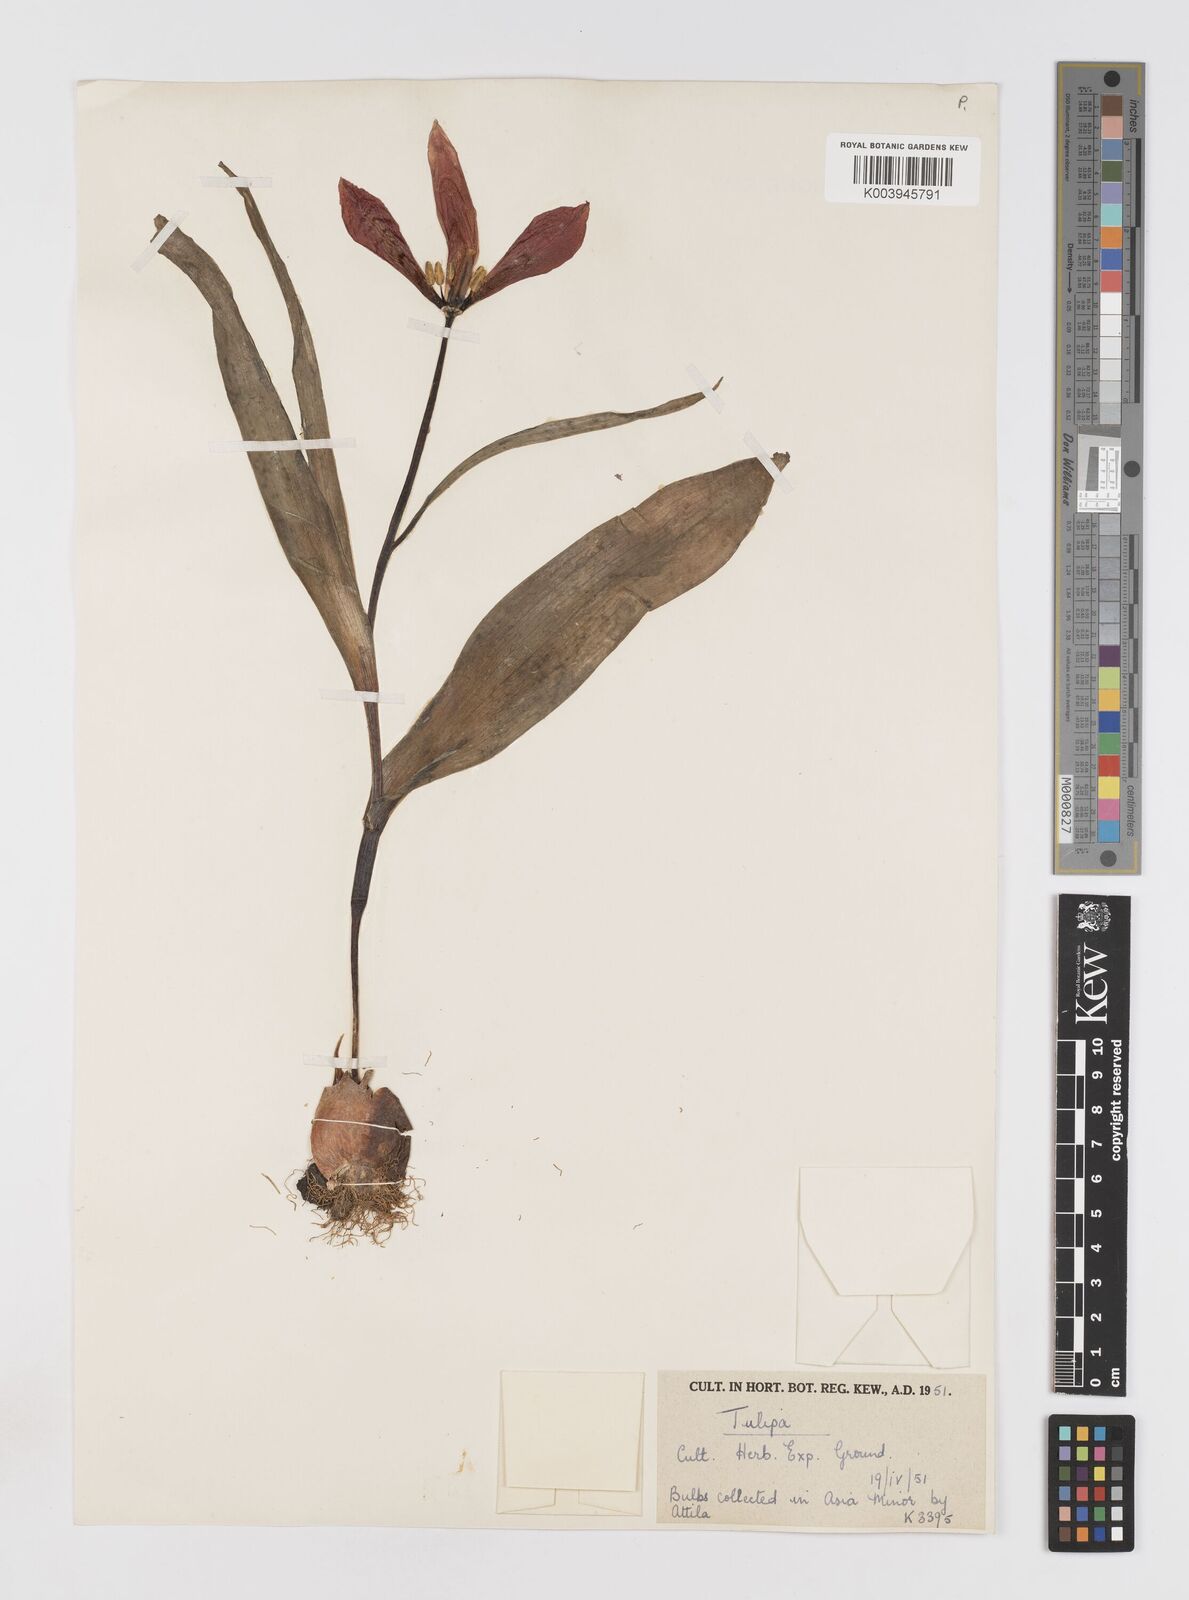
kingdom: Plantae
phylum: Tracheophyta
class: Liliopsida
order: Liliales
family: Liliaceae
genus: Tulipa
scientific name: Tulipa foliosa
